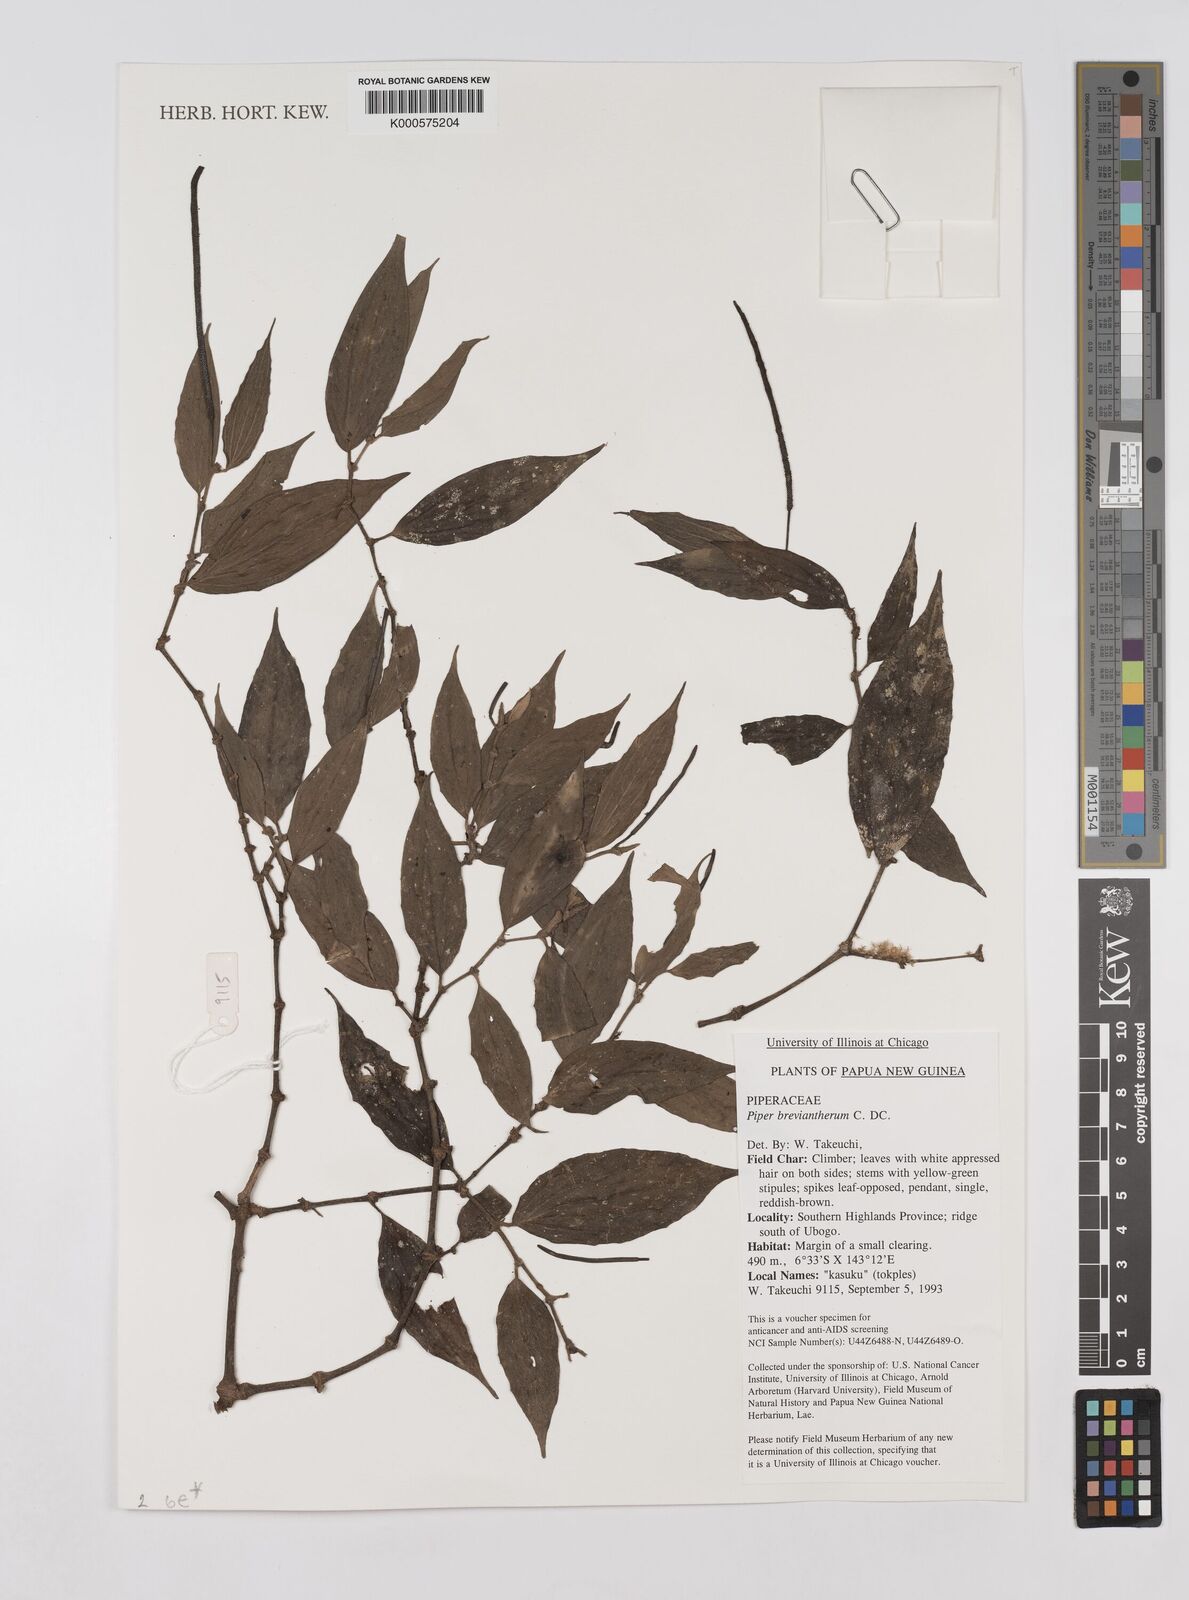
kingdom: Plantae
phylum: Tracheophyta
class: Magnoliopsida
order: Piperales
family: Piperaceae
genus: Piper
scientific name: Piper macropiper
